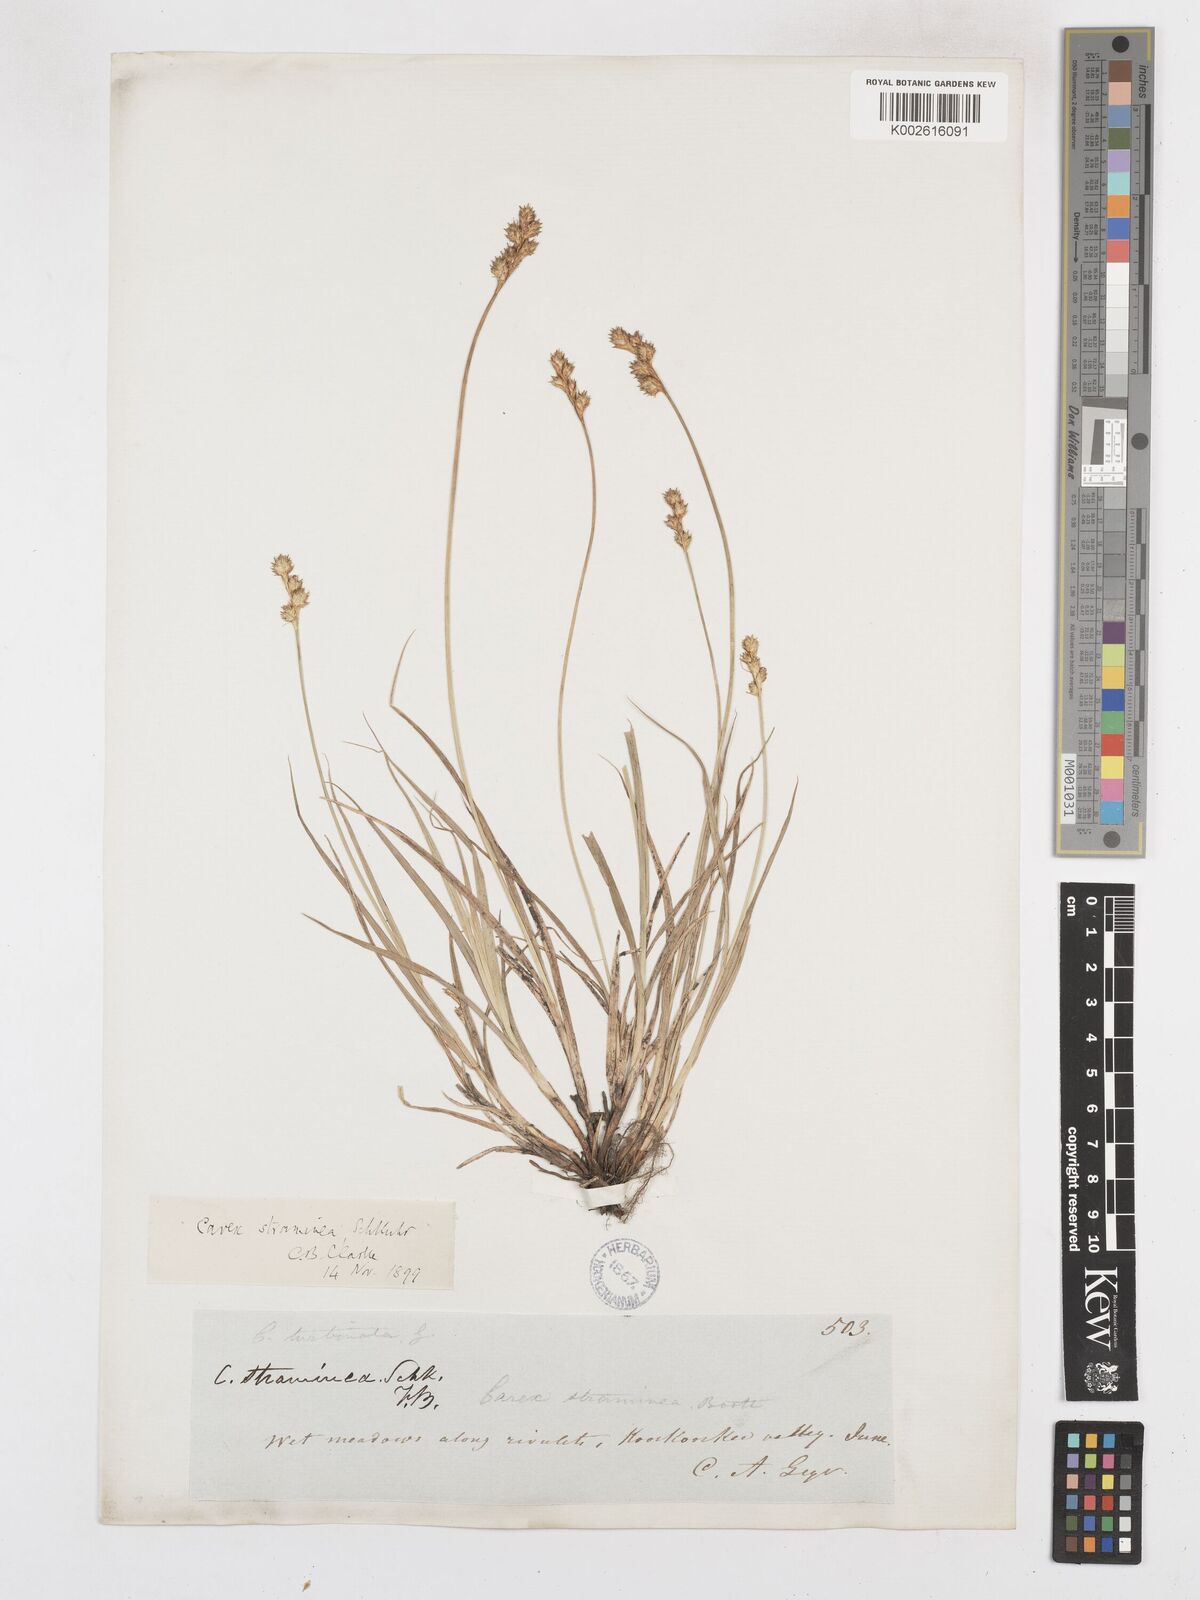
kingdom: Plantae
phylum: Tracheophyta
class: Liliopsida
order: Poales
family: Cyperaceae
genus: Carex
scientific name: Carex brevior
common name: Brevior sedge
